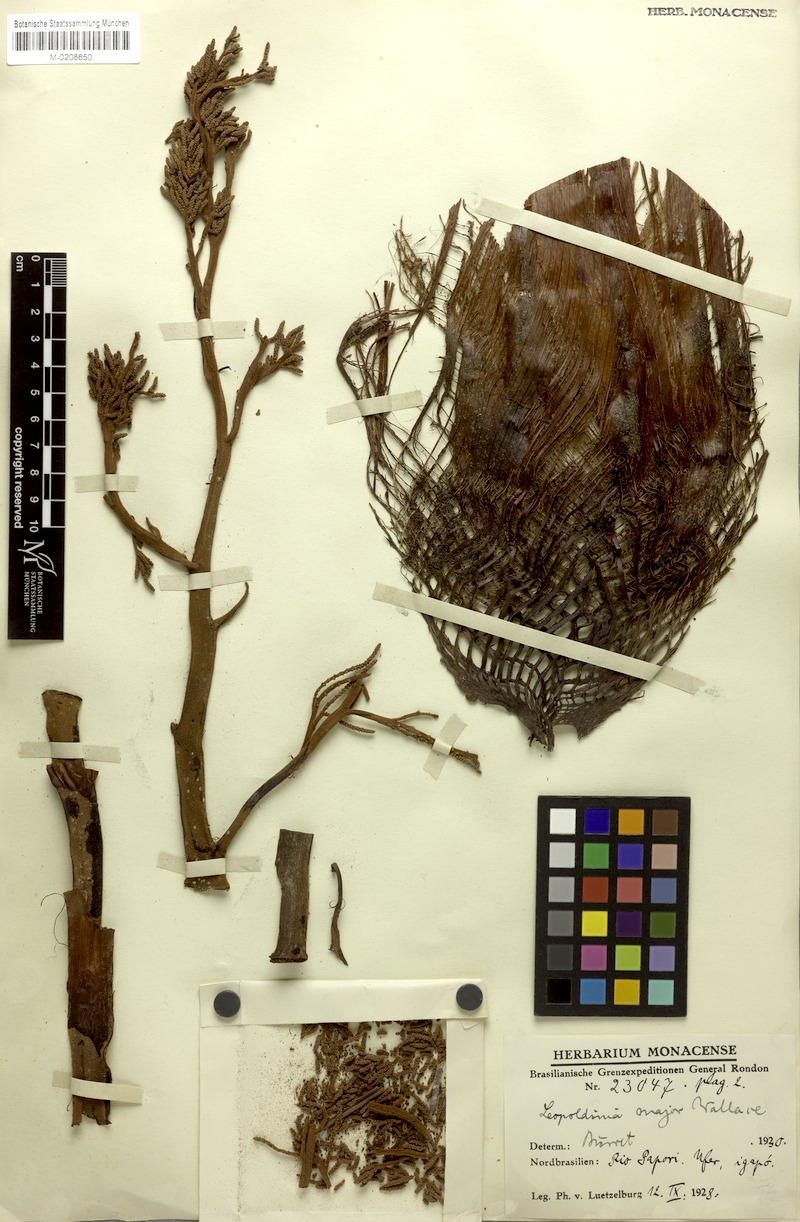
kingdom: Plantae
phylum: Tracheophyta
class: Liliopsida
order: Arecales
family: Arecaceae
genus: Leopoldinia
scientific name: Leopoldinia major
